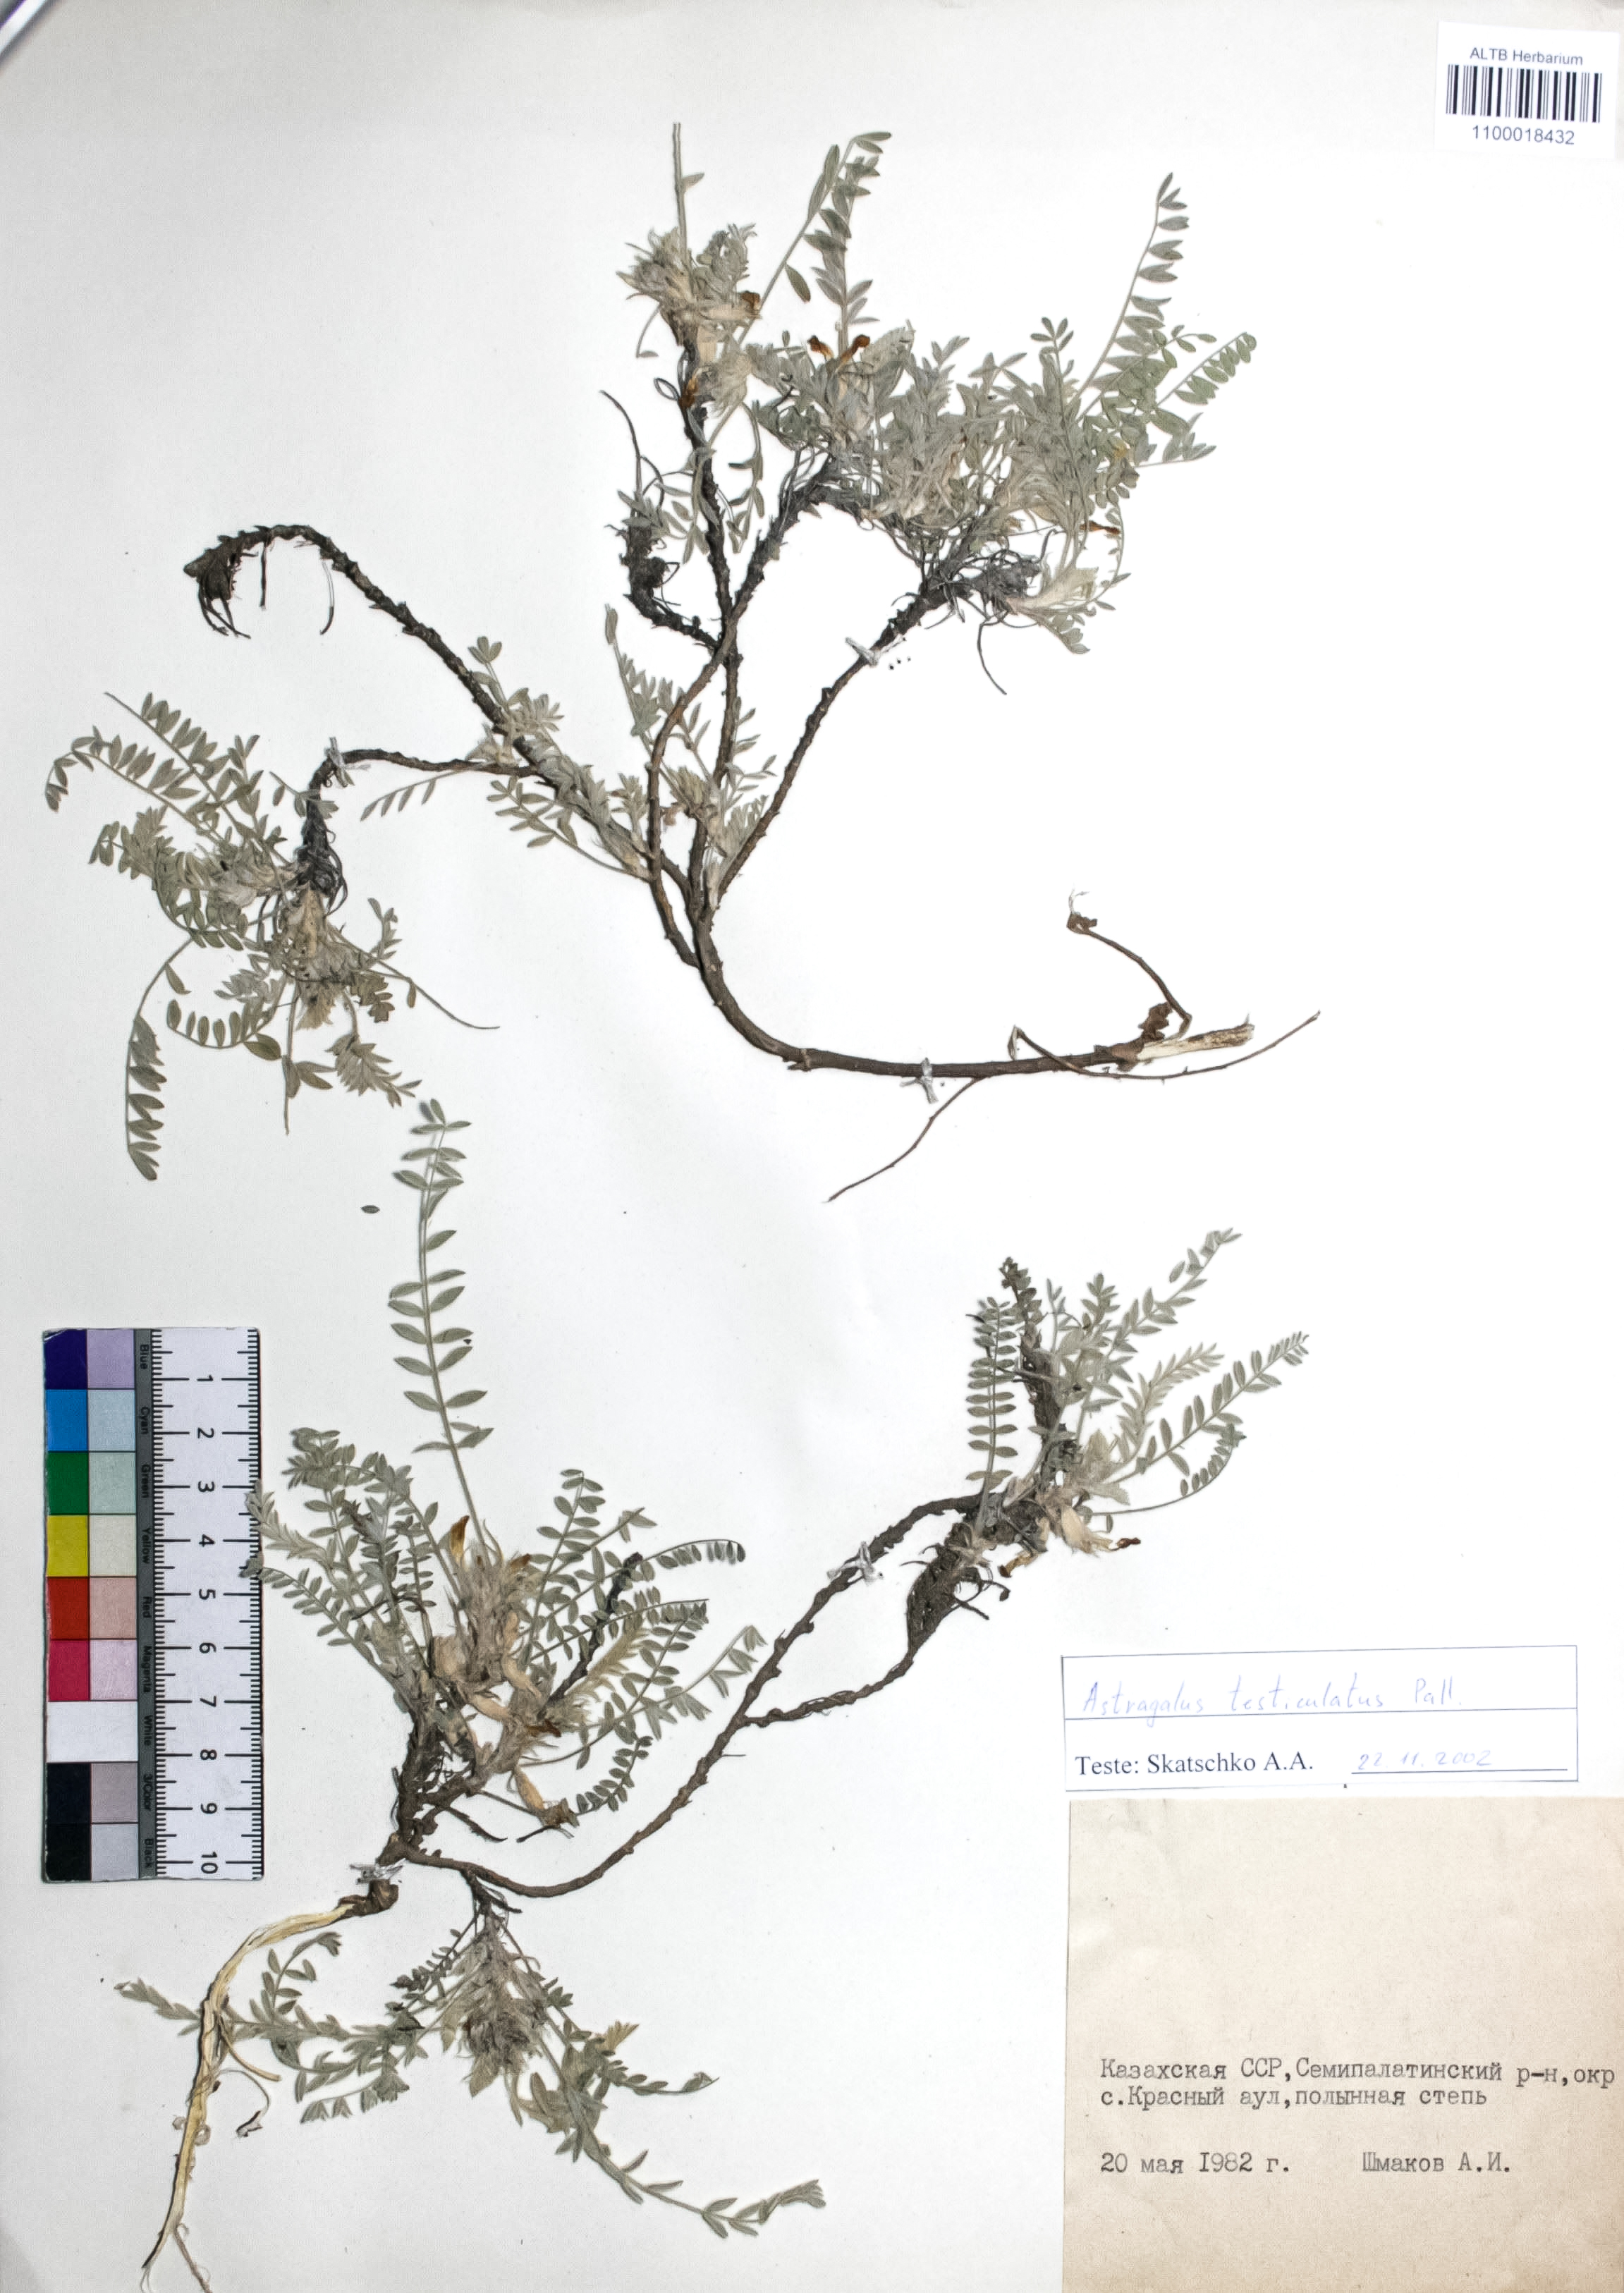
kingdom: Plantae
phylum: Tracheophyta
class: Magnoliopsida
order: Fabales
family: Fabaceae
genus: Astragalus
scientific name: Astragalus testiculatus
